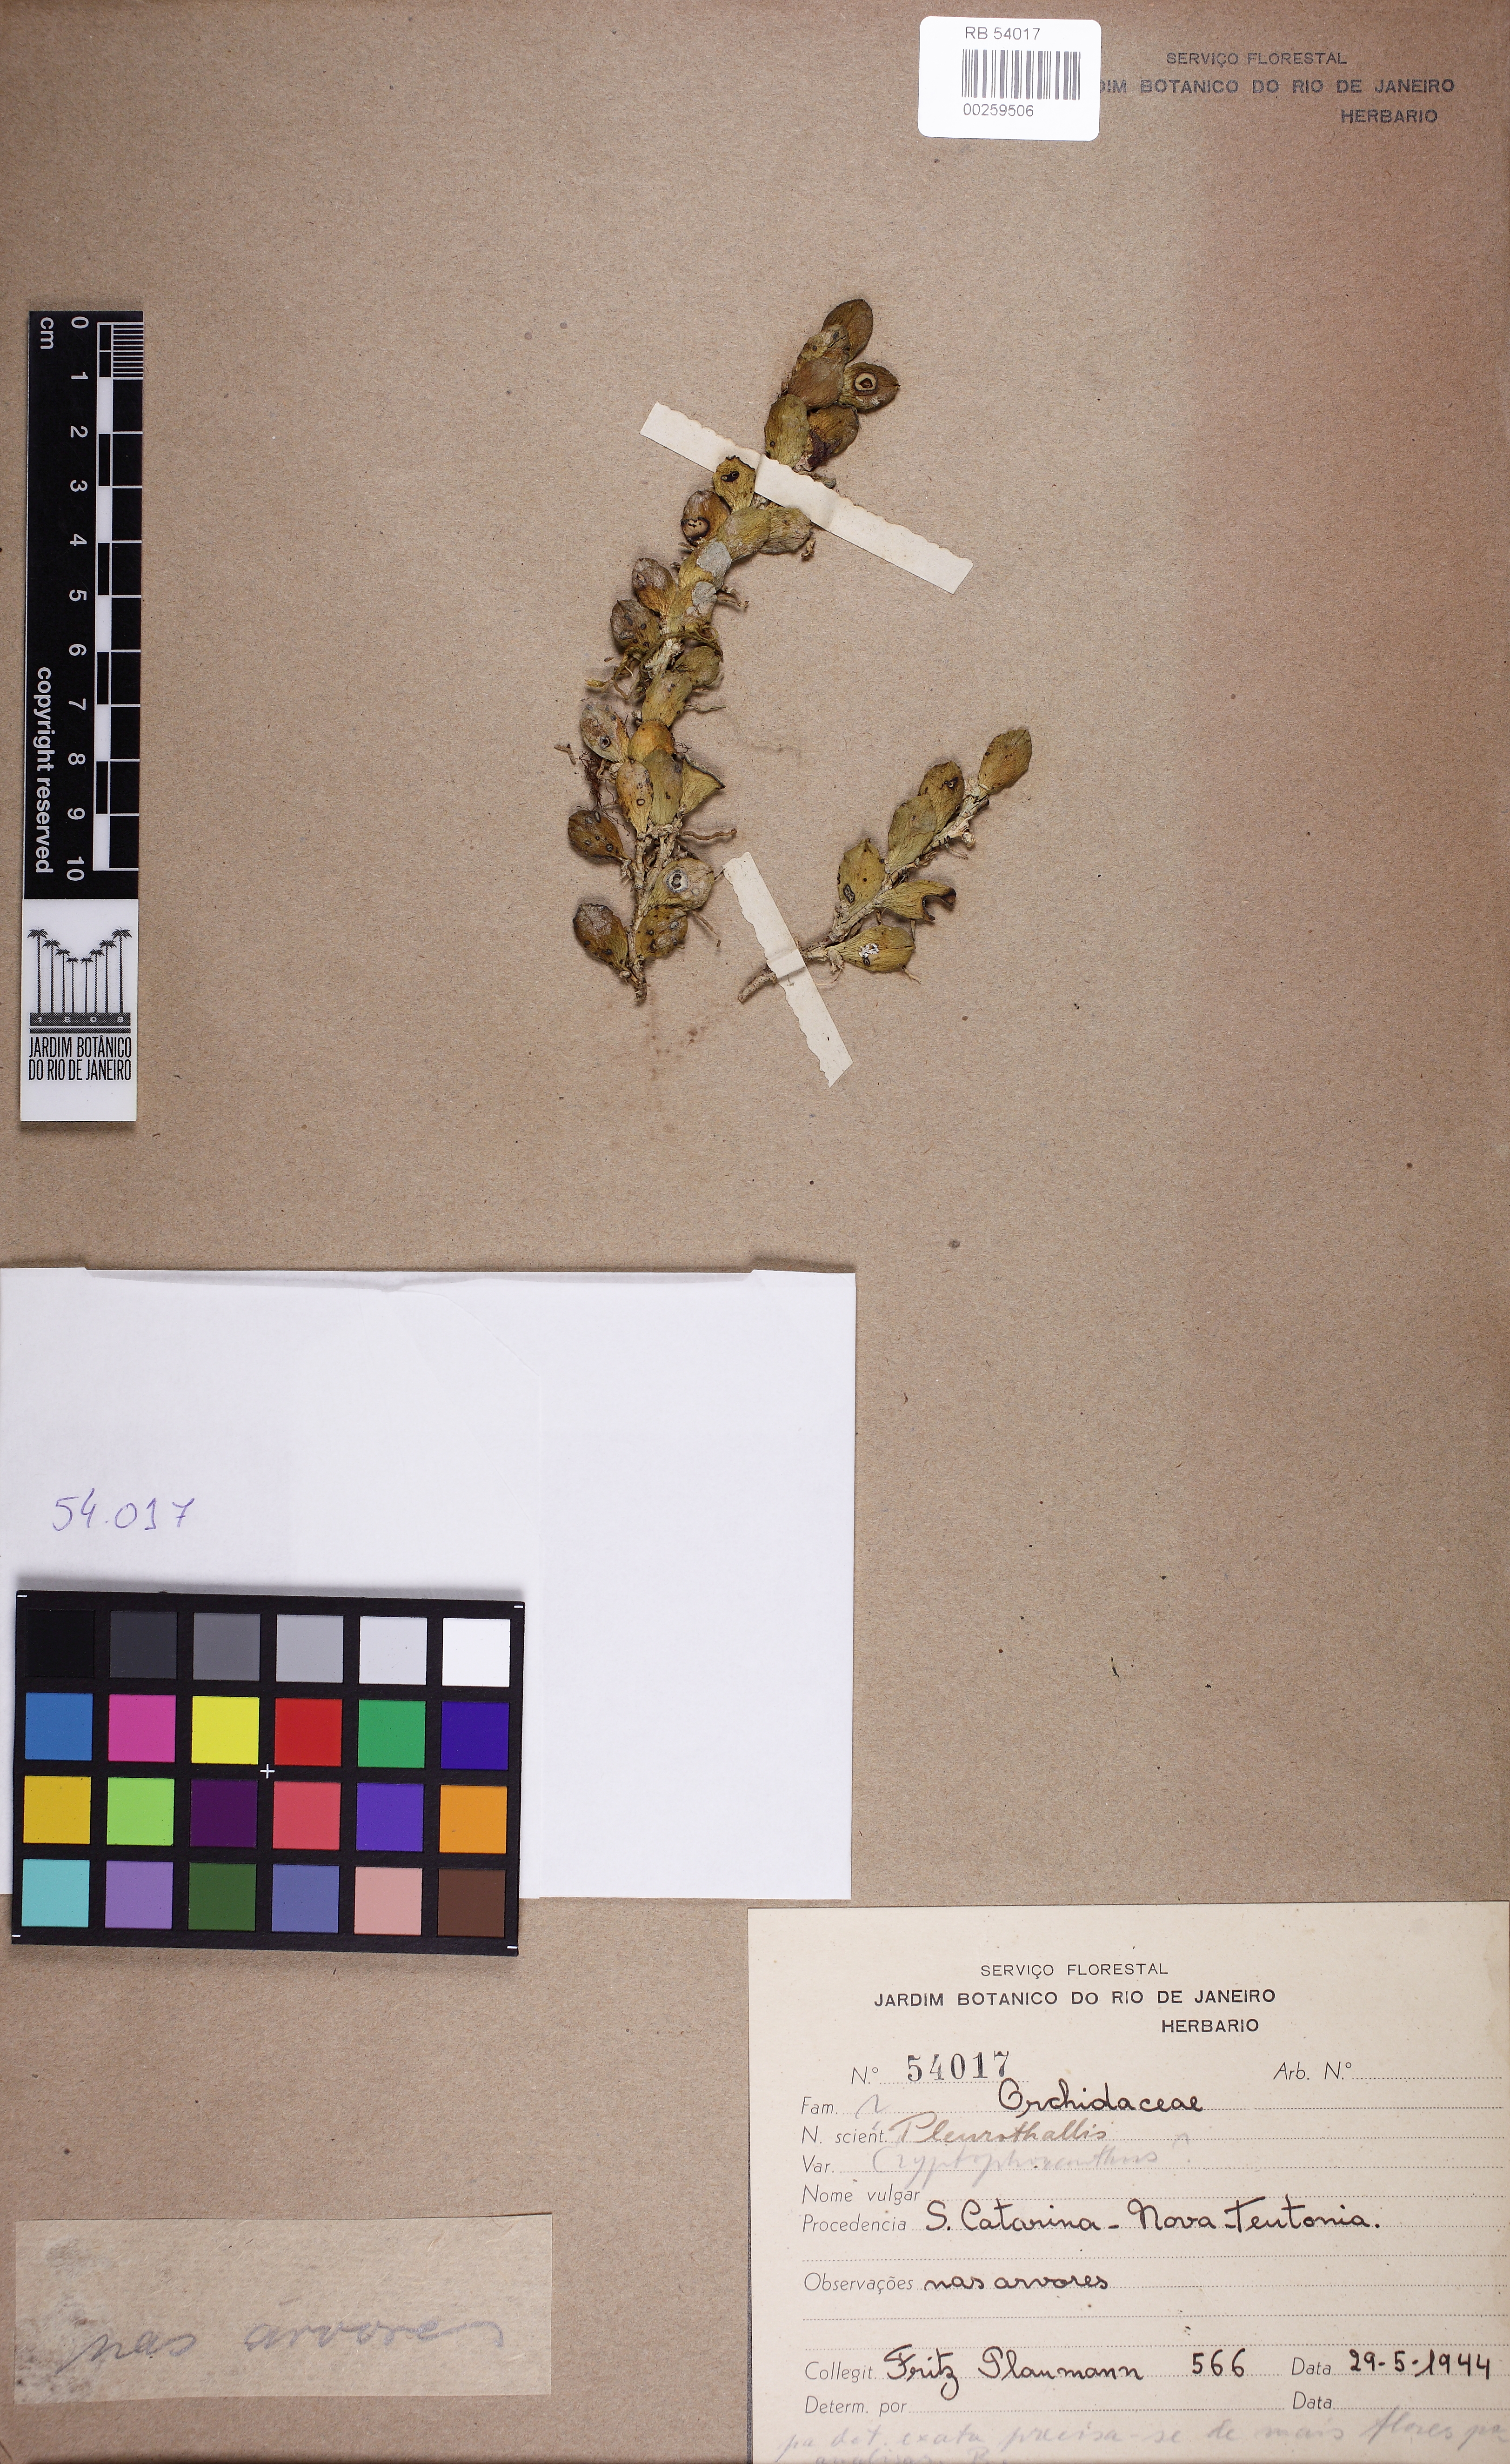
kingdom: Plantae
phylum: Tracheophyta
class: Liliopsida
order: Asparagales
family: Orchidaceae
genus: Acianthera
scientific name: Acianthera recurva
